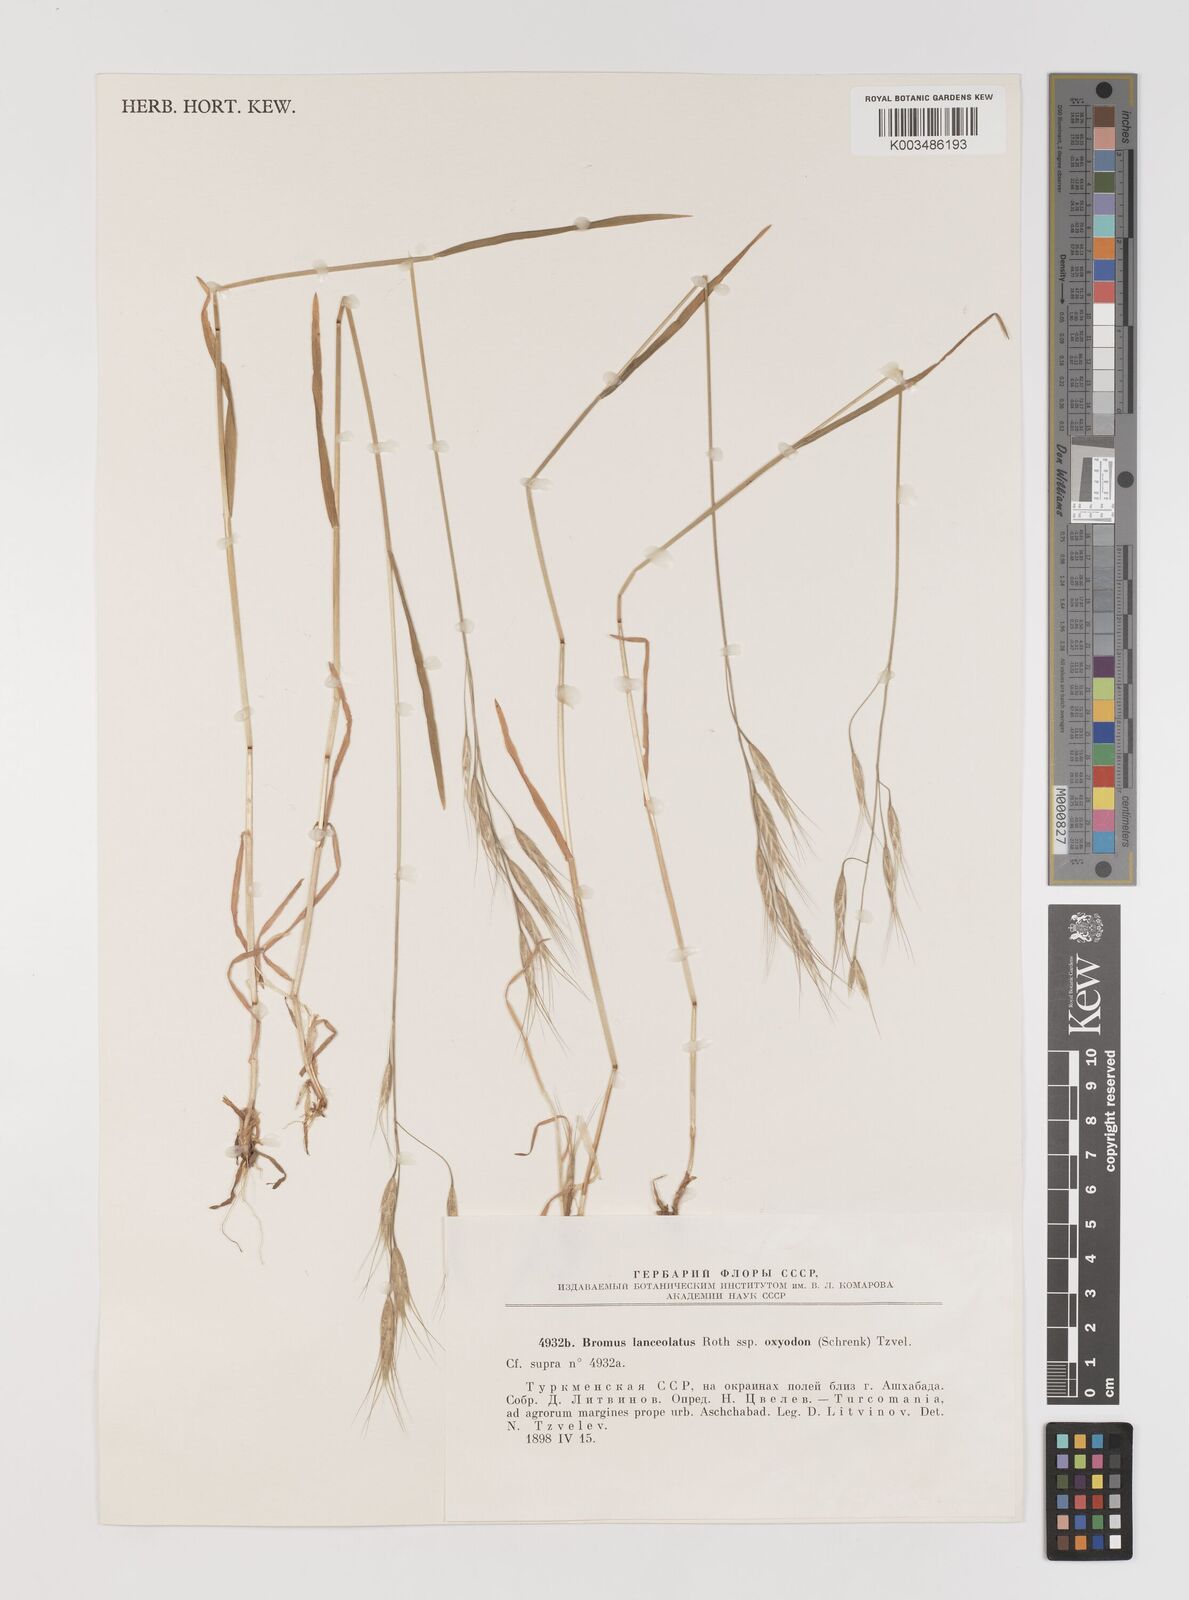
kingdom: Plantae
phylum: Tracheophyta
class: Liliopsida
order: Poales
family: Poaceae
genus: Bromus
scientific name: Bromus oxyodon
